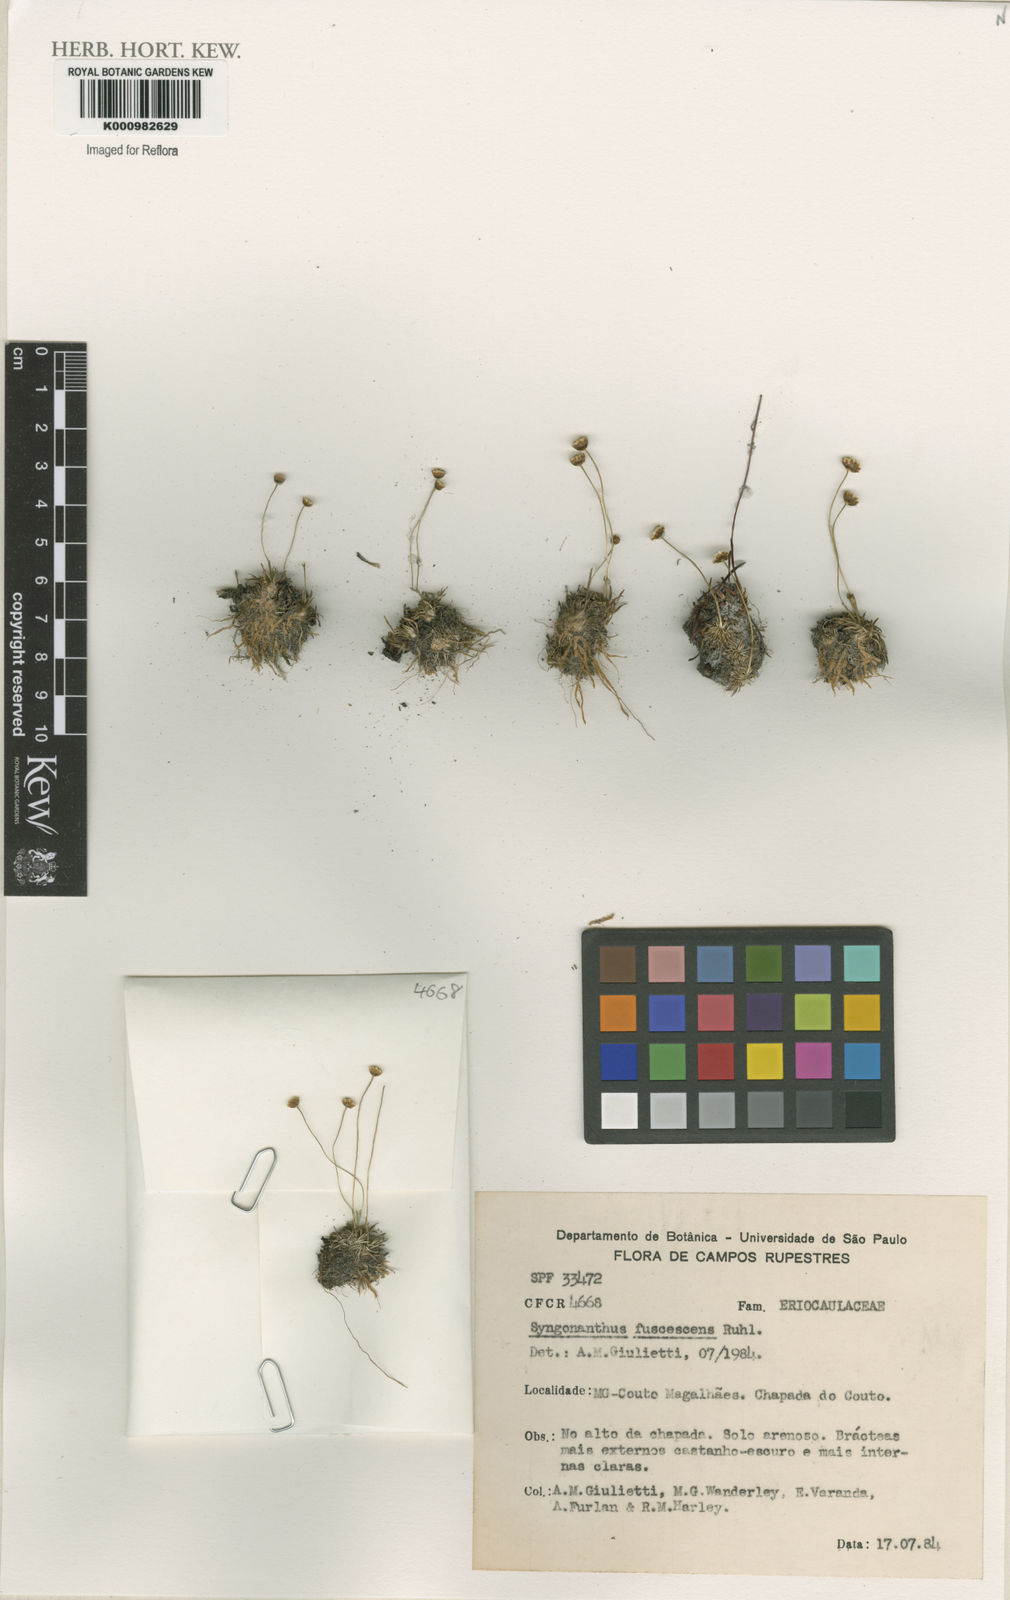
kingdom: Plantae
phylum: Tracheophyta
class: Liliopsida
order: Poales
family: Eriocaulaceae
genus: Syngonanthus
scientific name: Syngonanthus fuscescens
